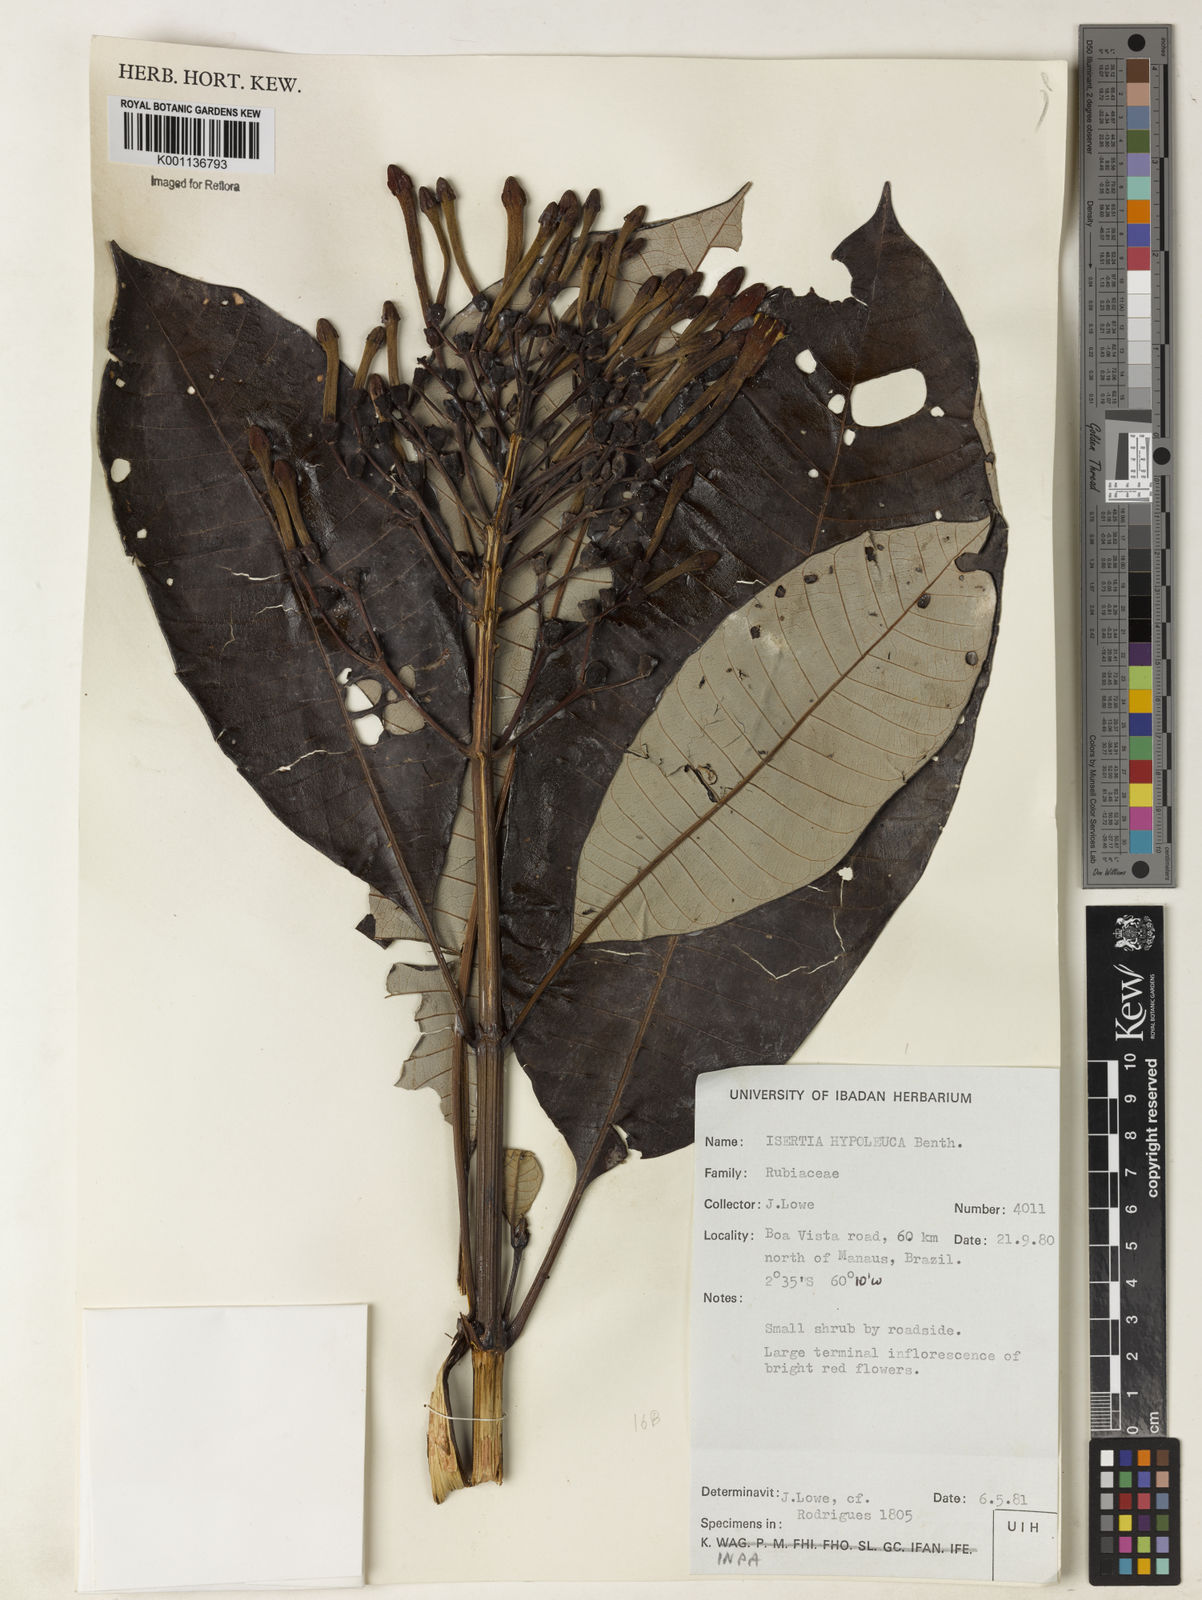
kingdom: Plantae
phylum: Tracheophyta
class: Magnoliopsida
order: Gentianales
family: Rubiaceae
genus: Isertia
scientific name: Isertia hypoleuca
